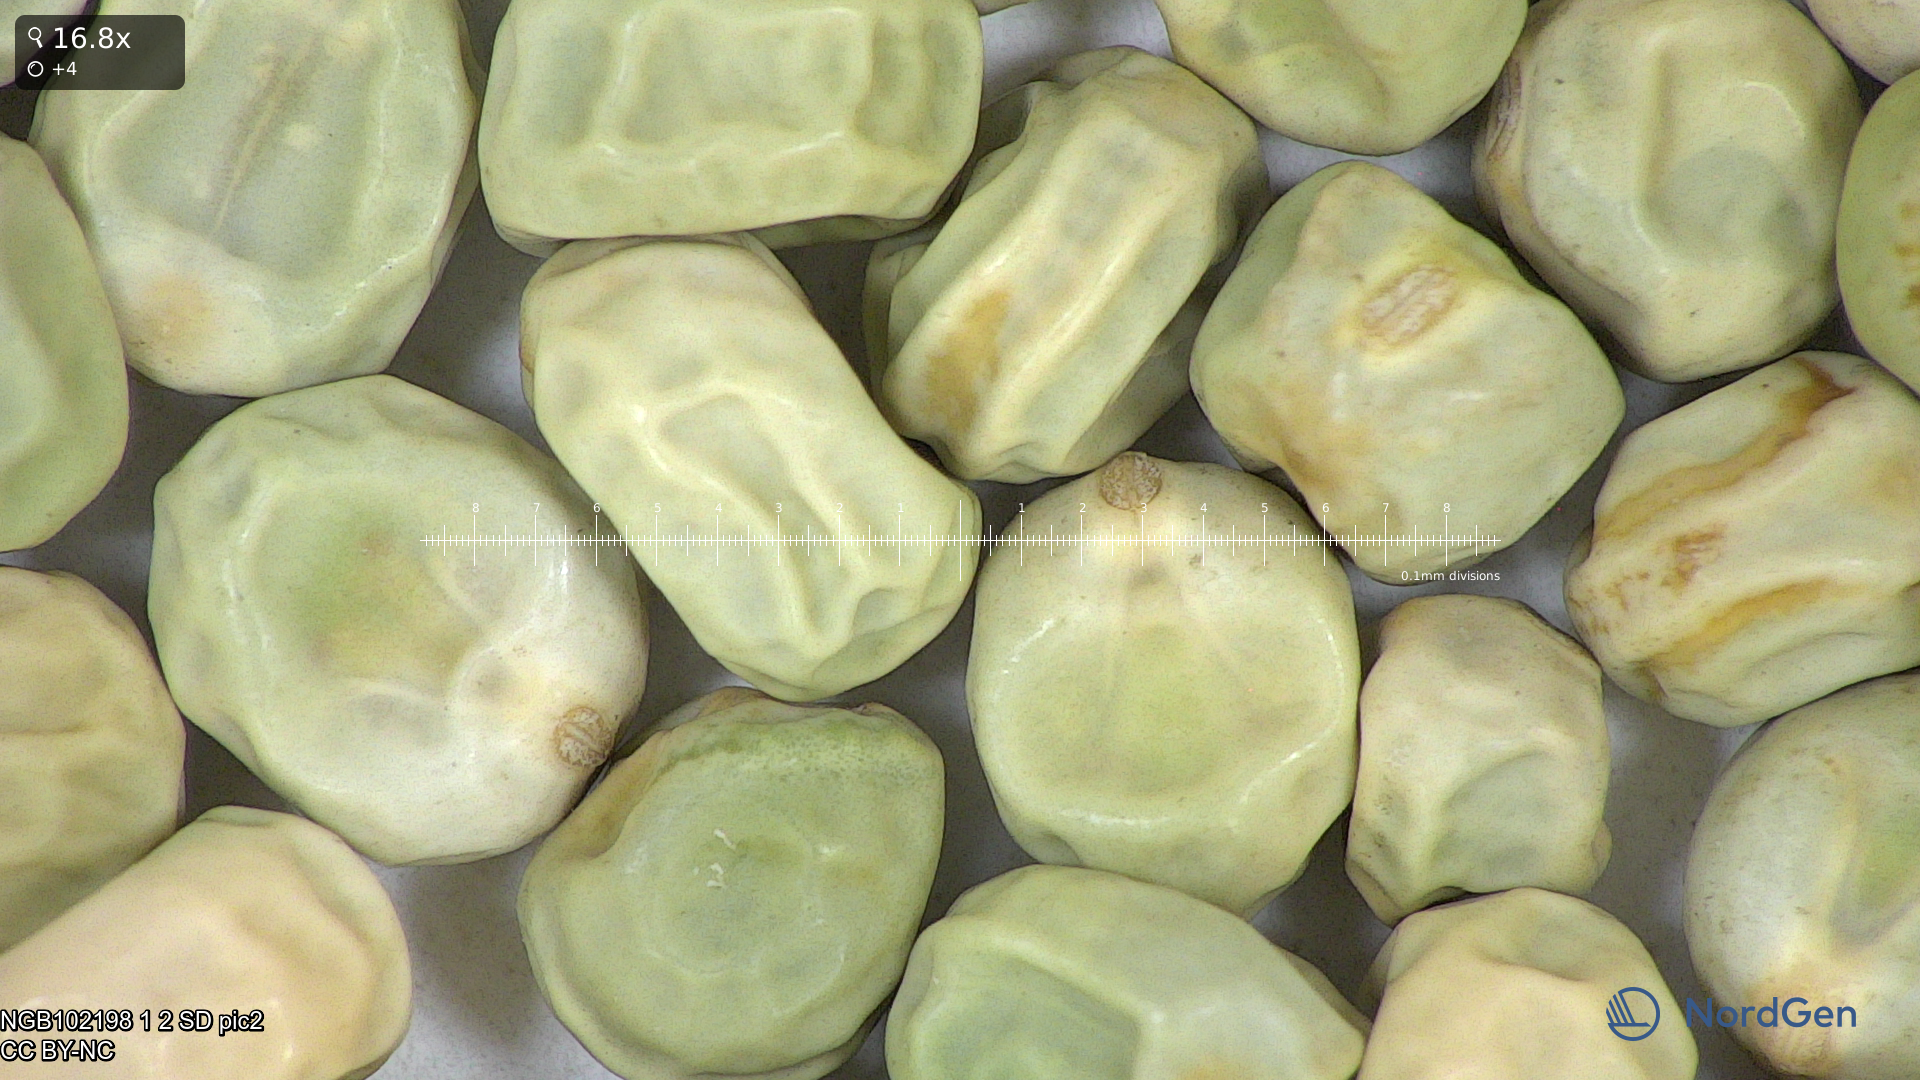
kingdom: Plantae
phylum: Tracheophyta
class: Magnoliopsida
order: Fabales
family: Fabaceae
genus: Lathyrus
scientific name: Lathyrus oleraceus
